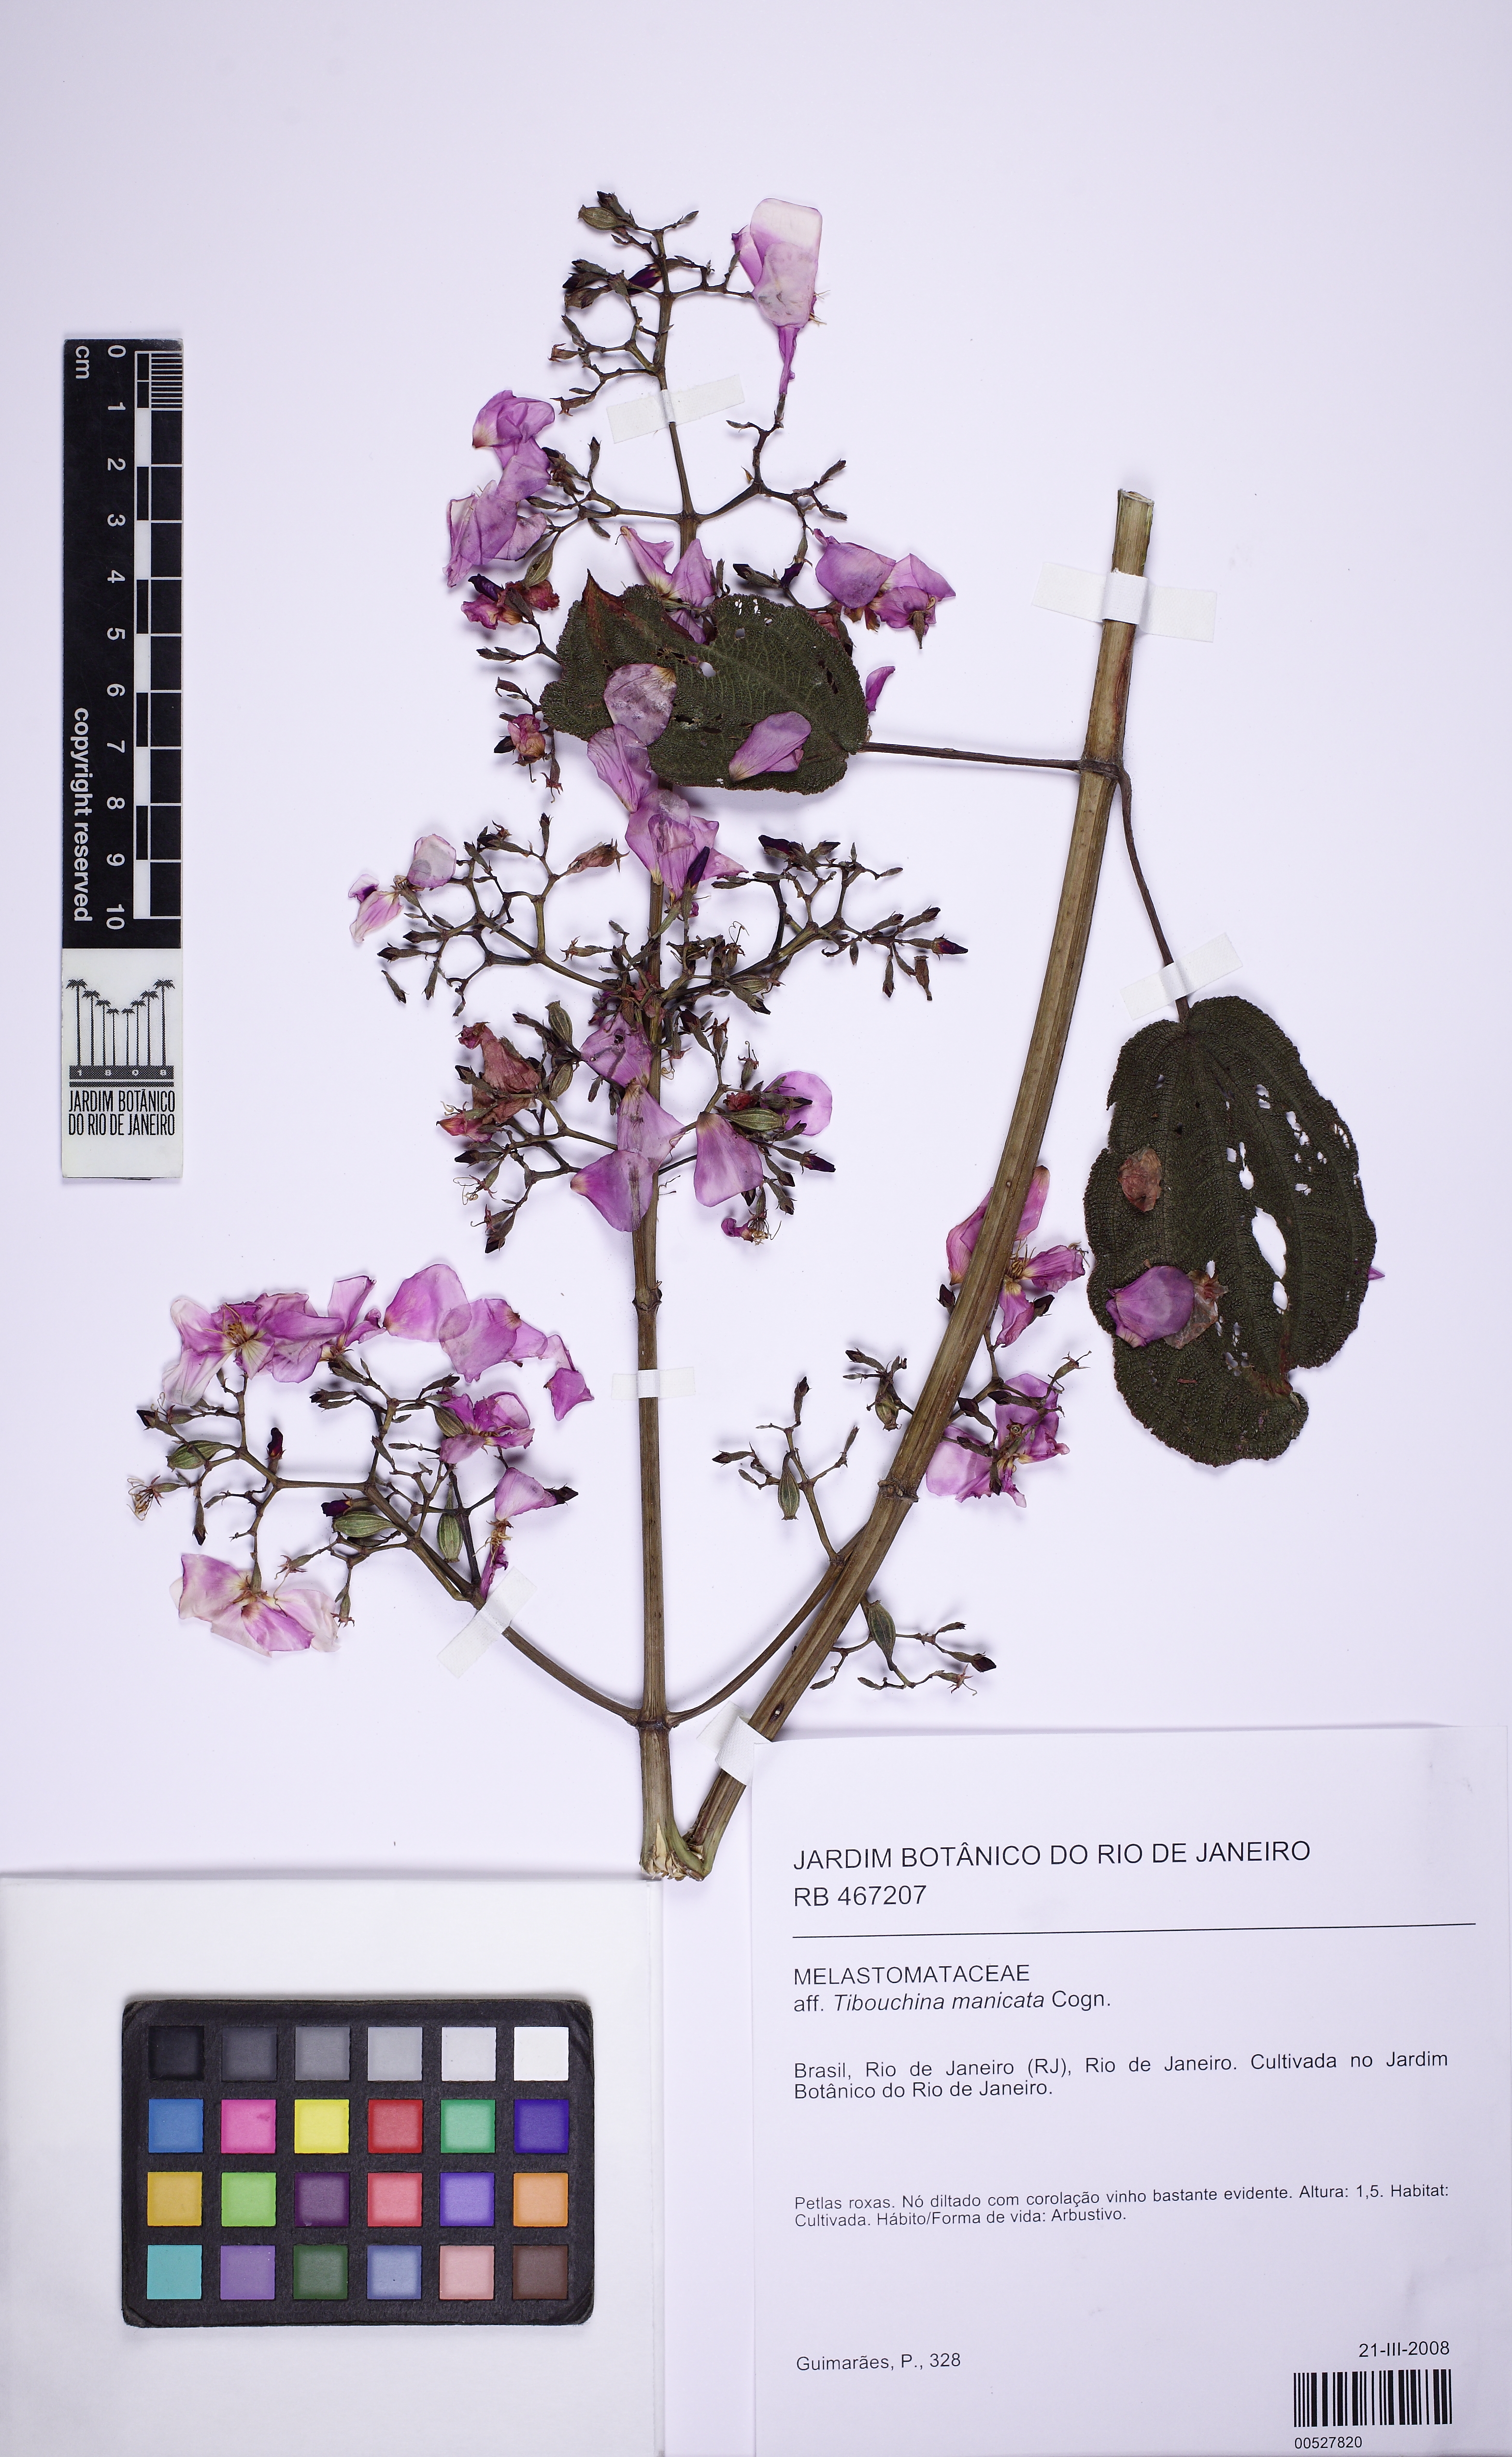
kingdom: Plantae
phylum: Tracheophyta
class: Magnoliopsida
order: Myrtales
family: Melastomataceae
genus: Pleroma
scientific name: Pleroma manicatum
